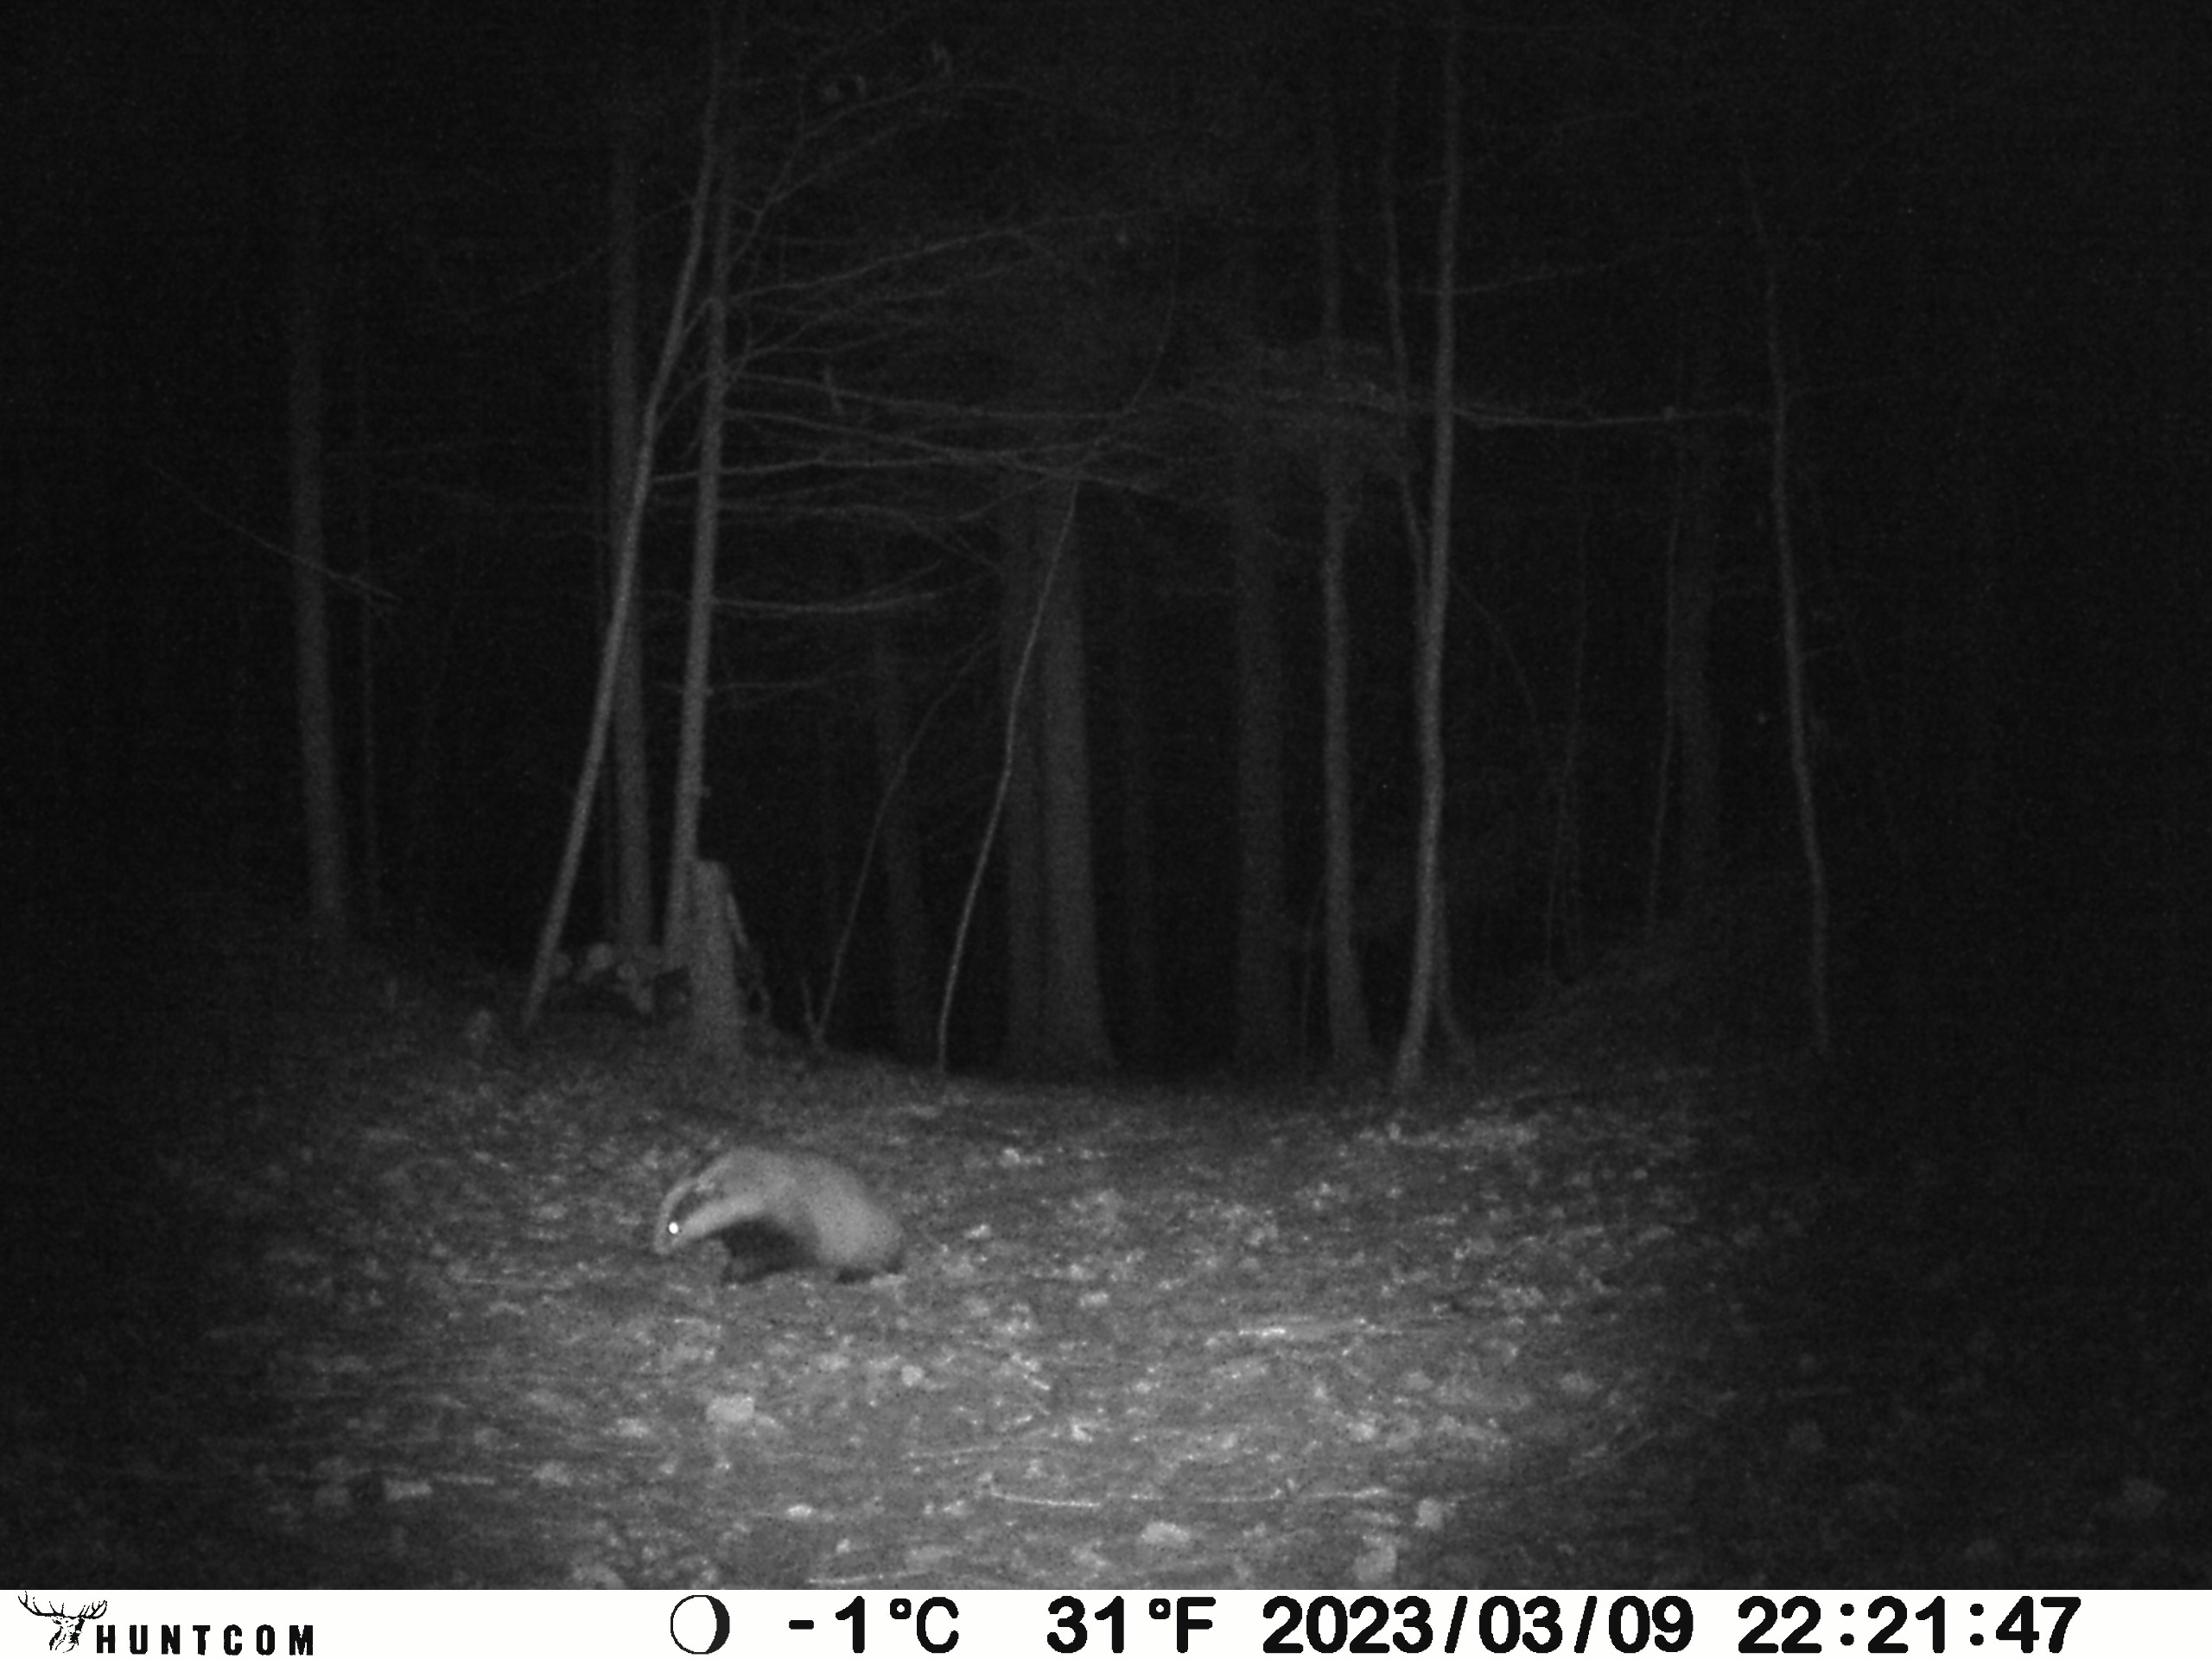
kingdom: Animalia
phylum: Chordata
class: Mammalia
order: Carnivora
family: Mustelidae
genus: Meles
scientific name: Meles meles
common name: Grævling
